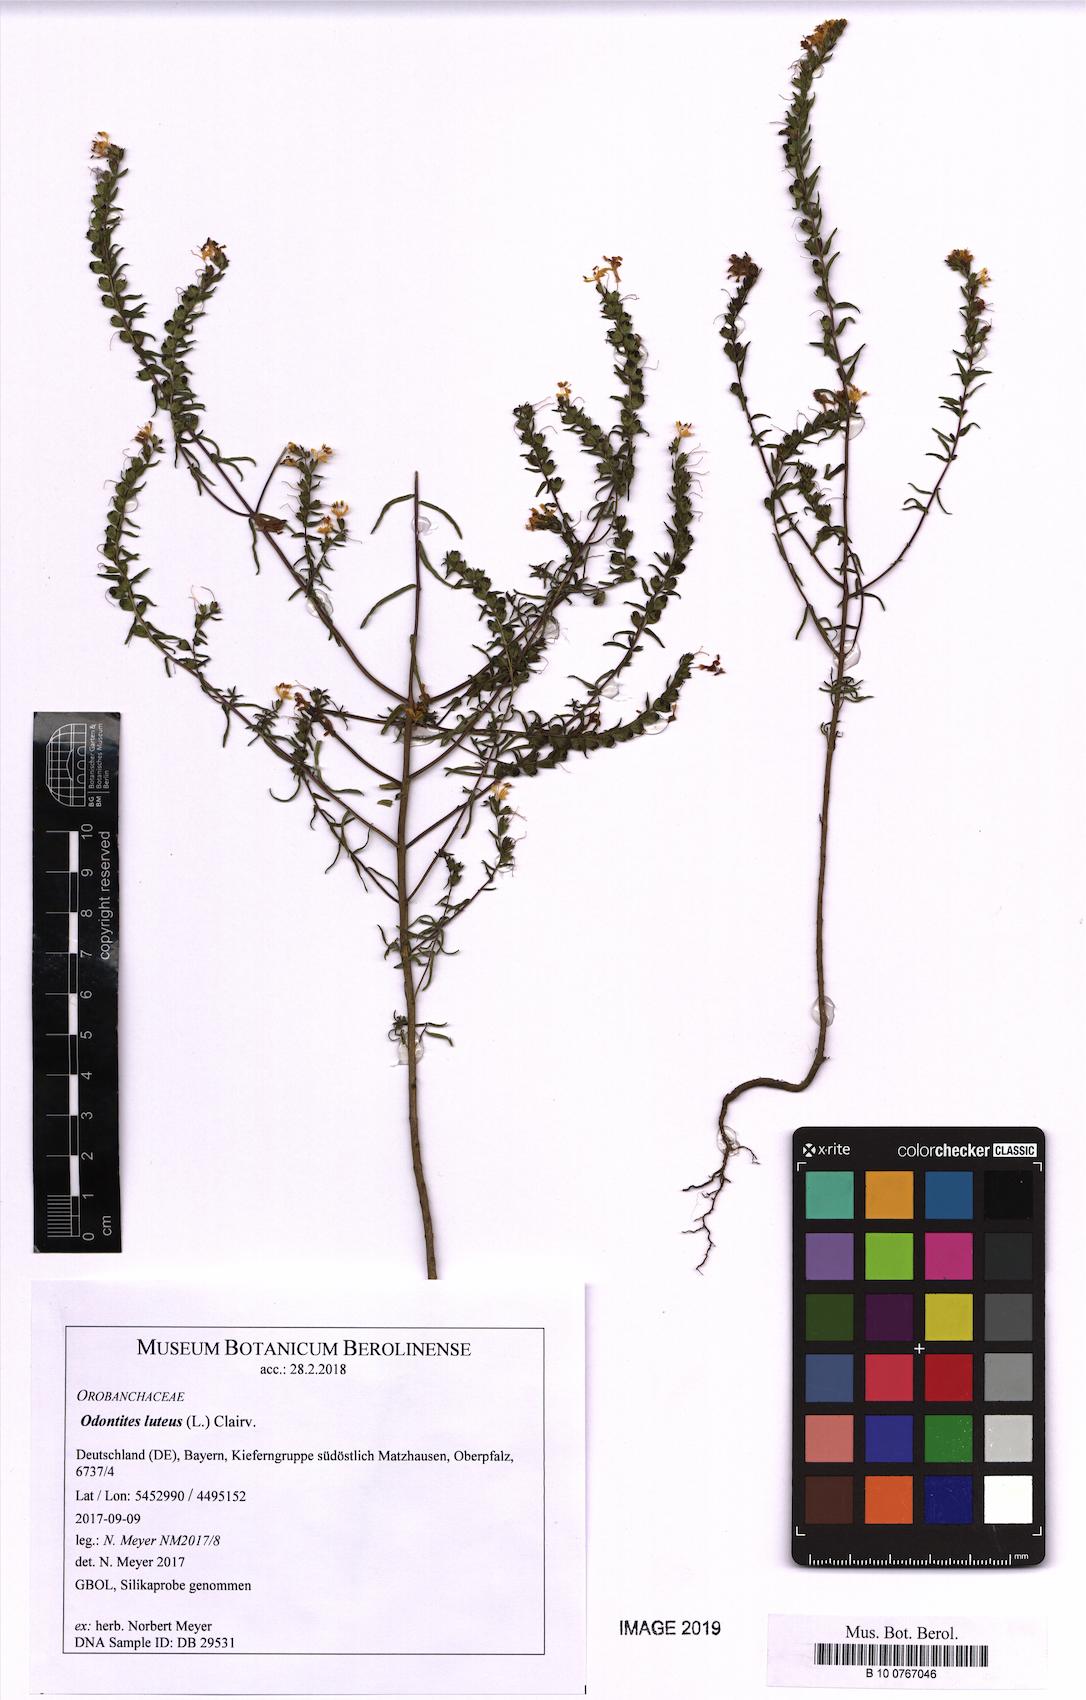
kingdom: Plantae
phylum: Tracheophyta
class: Magnoliopsida
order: Lamiales
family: Orobanchaceae
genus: Odontites
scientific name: Odontites luteus
